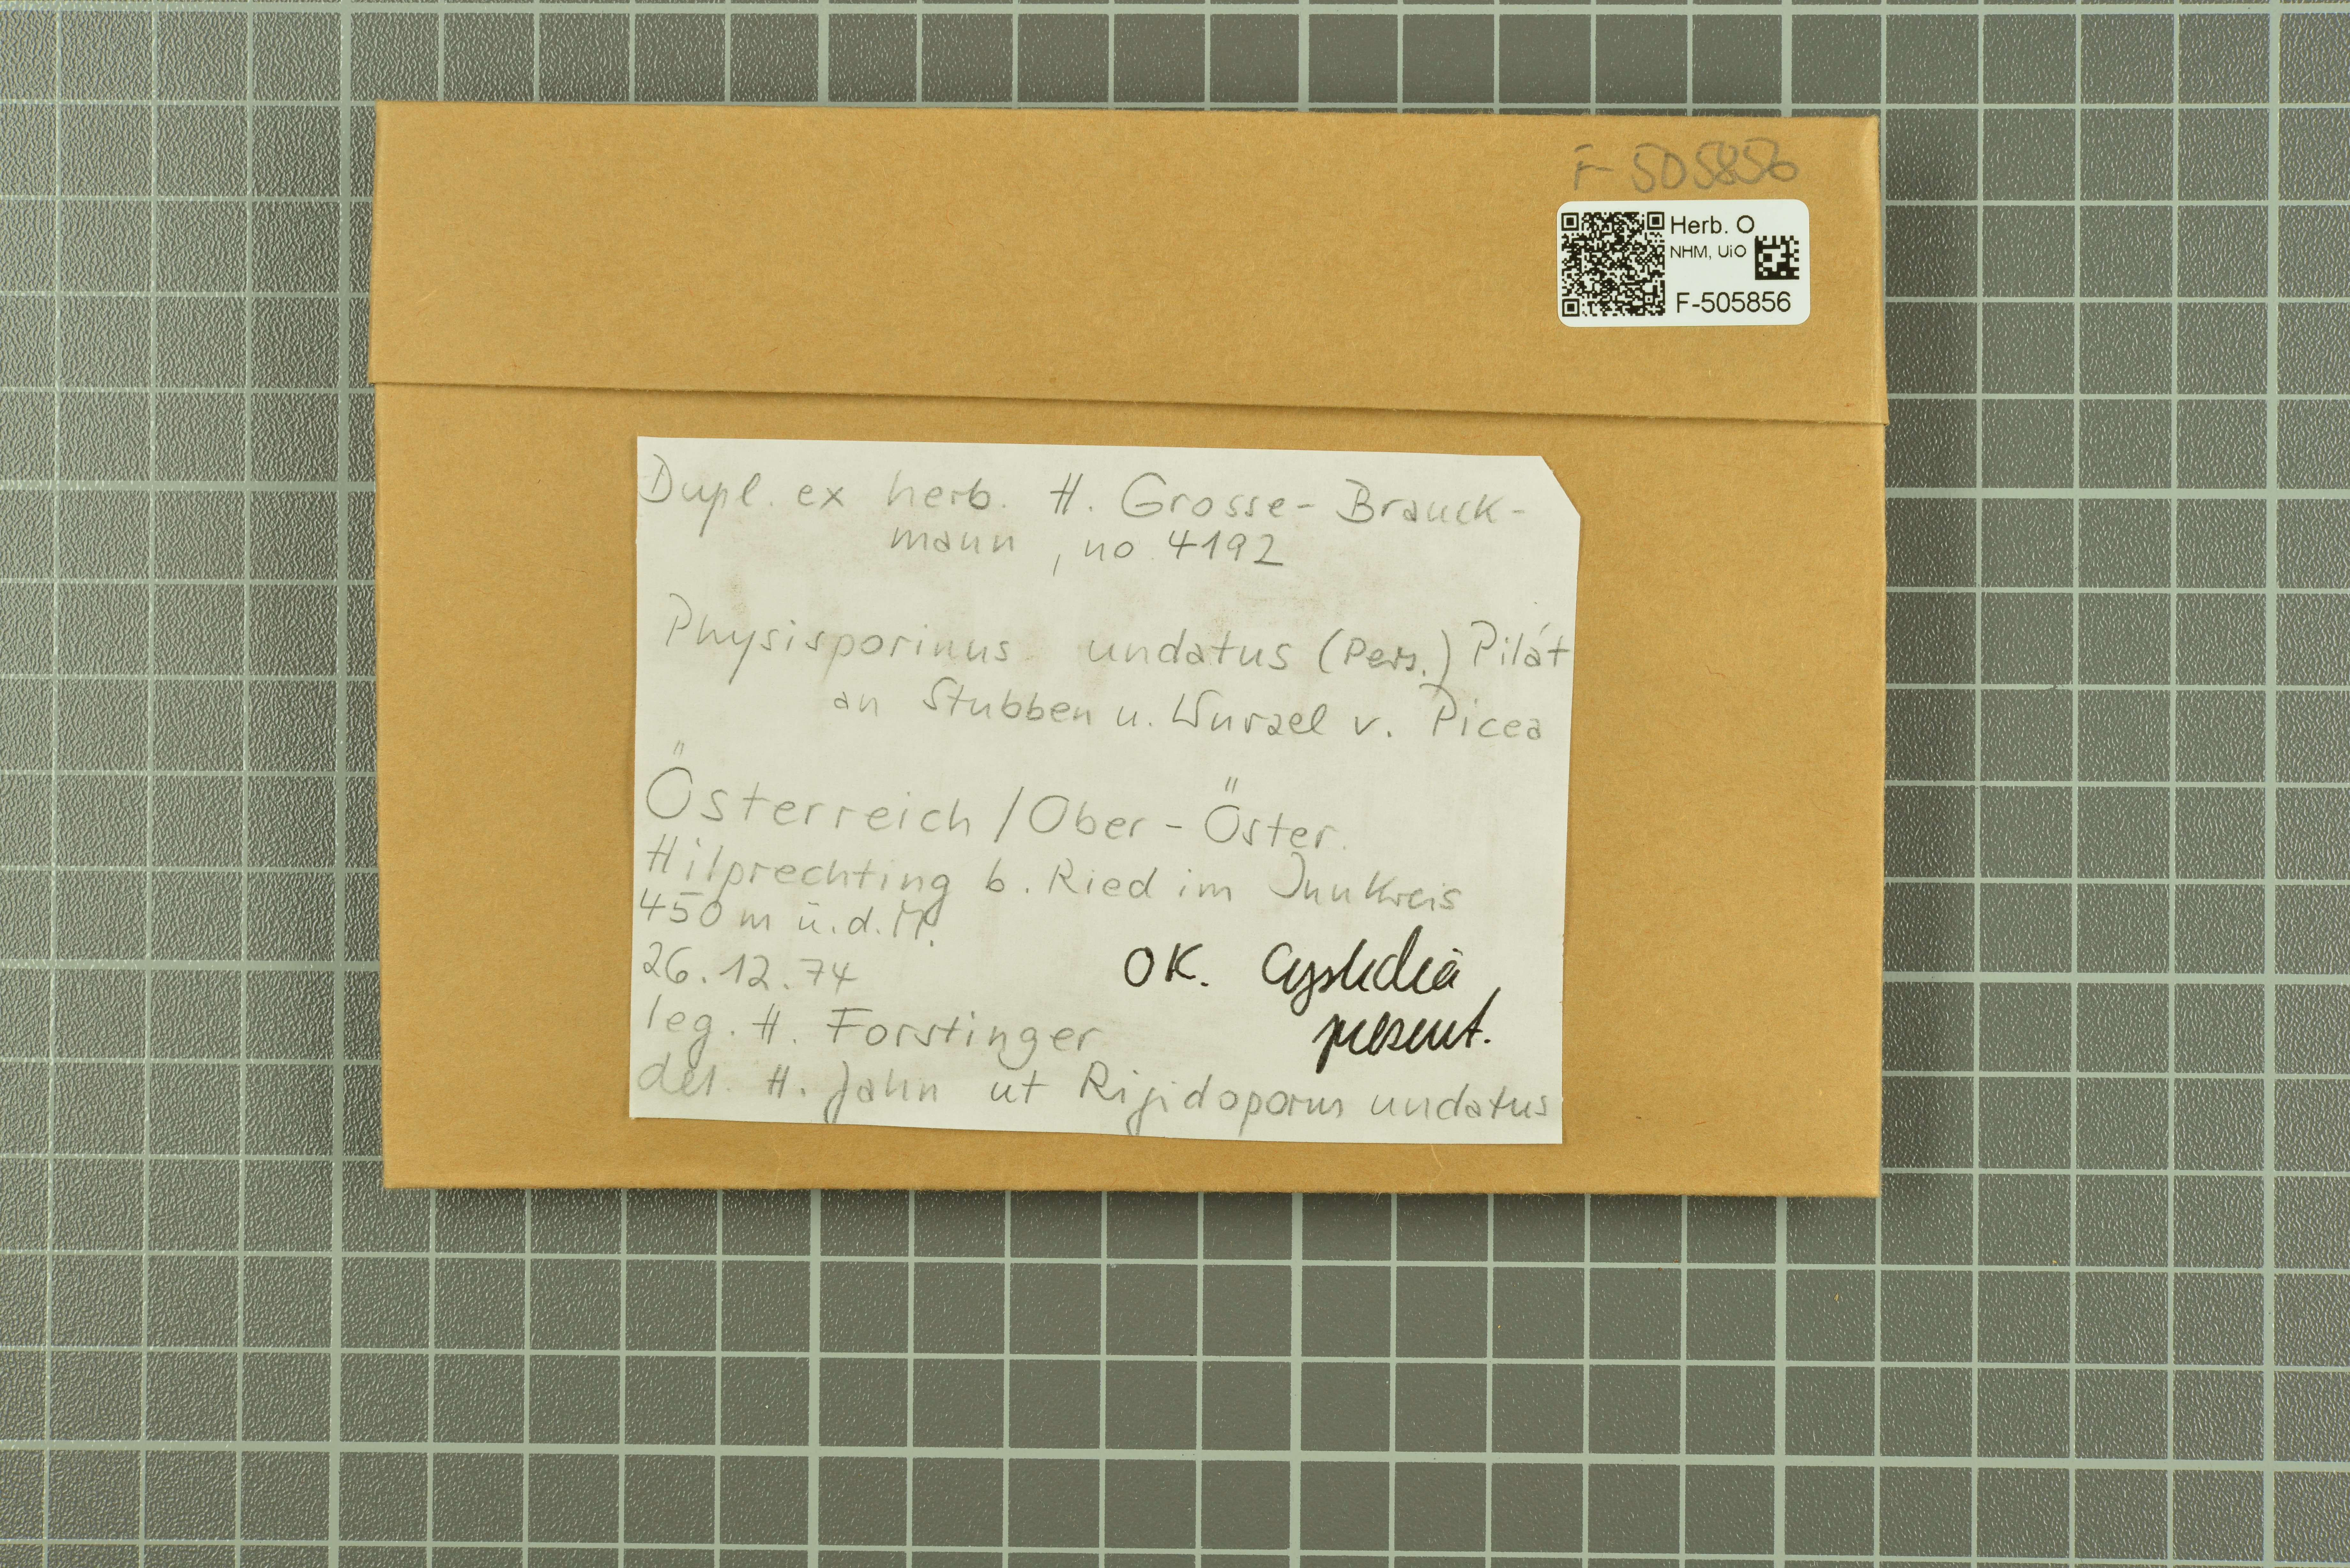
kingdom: Fungi
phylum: Basidiomycota
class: Agaricomycetes
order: Polyporales
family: Meripilaceae
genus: Rigidoporus
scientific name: Rigidoporus ulmarius
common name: Giant elm bracket
